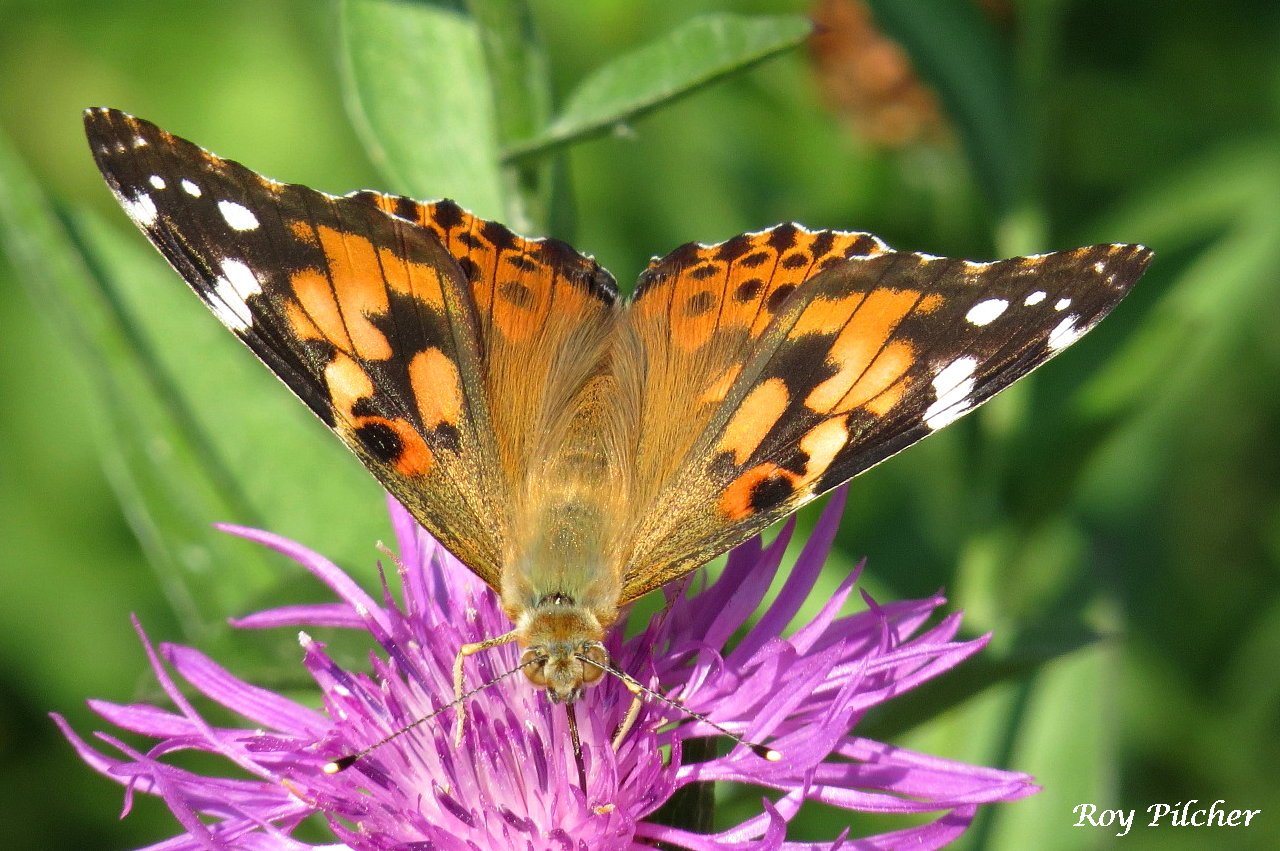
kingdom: Animalia
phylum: Arthropoda
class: Insecta
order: Lepidoptera
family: Nymphalidae
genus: Vanessa
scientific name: Vanessa cardui
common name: Painted Lady
